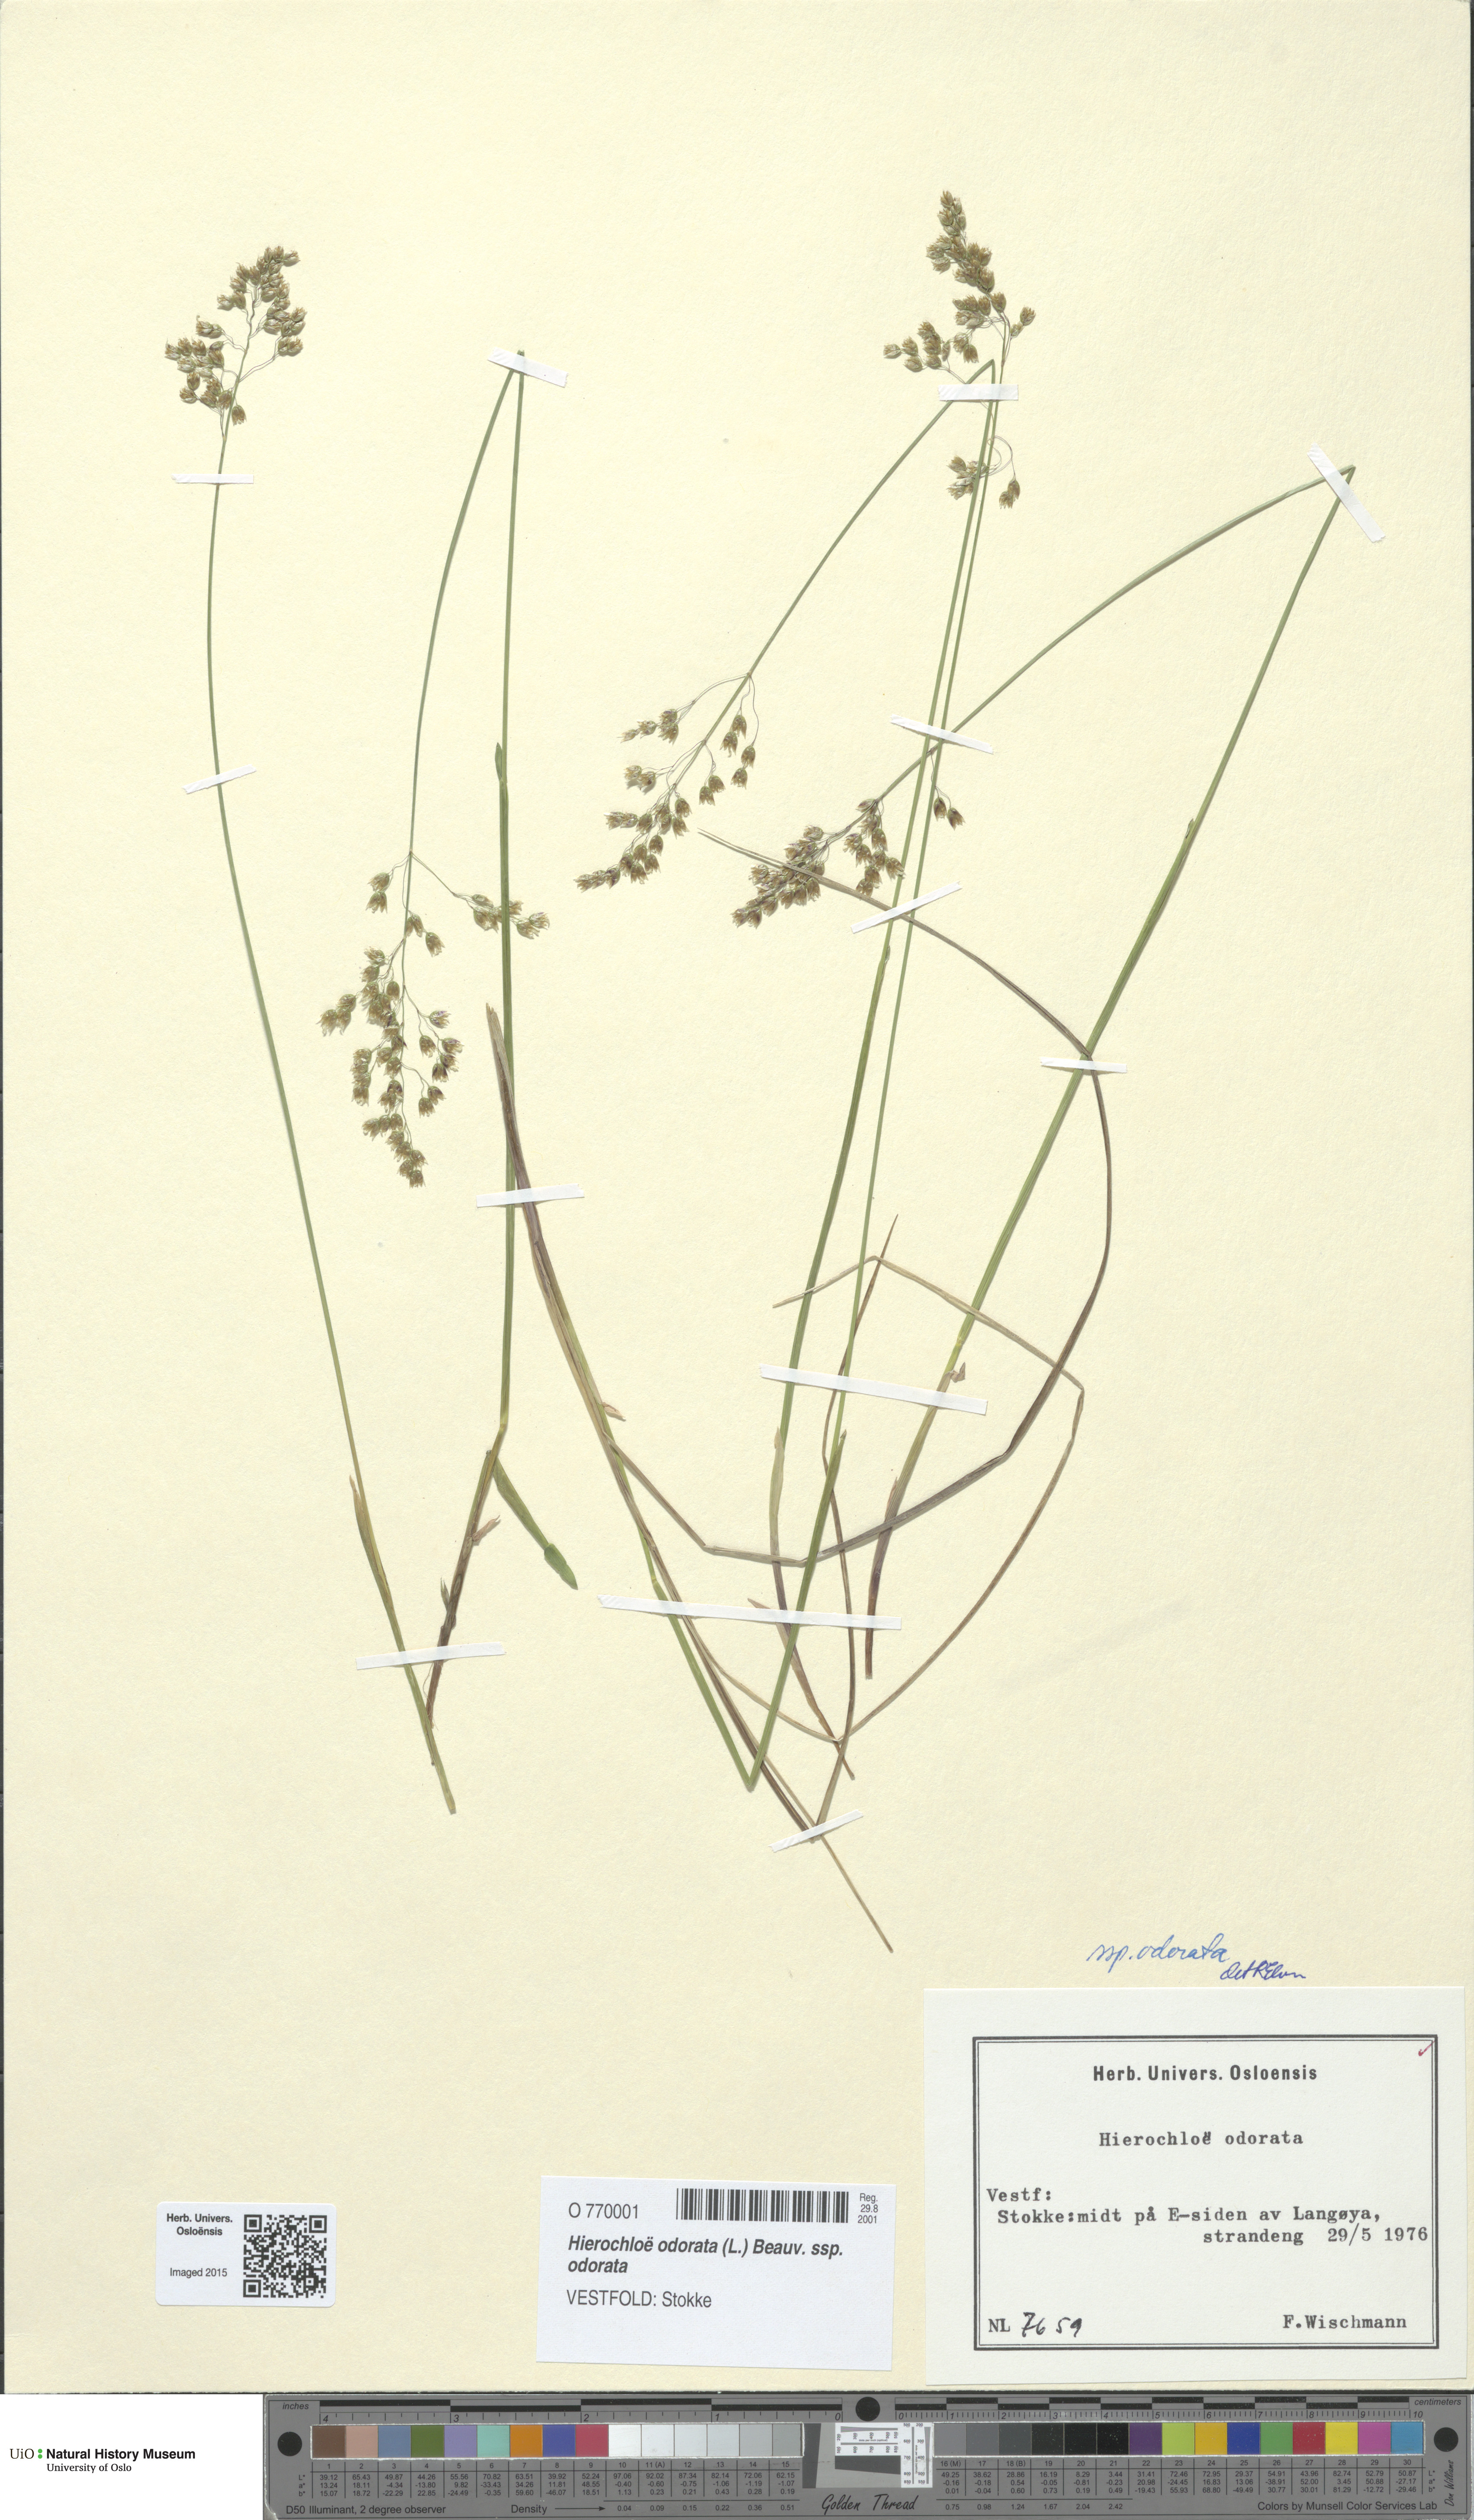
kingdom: Plantae
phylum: Tracheophyta
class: Liliopsida
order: Poales
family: Poaceae
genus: Anthoxanthum
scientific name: Anthoxanthum nitens
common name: Holy grass
